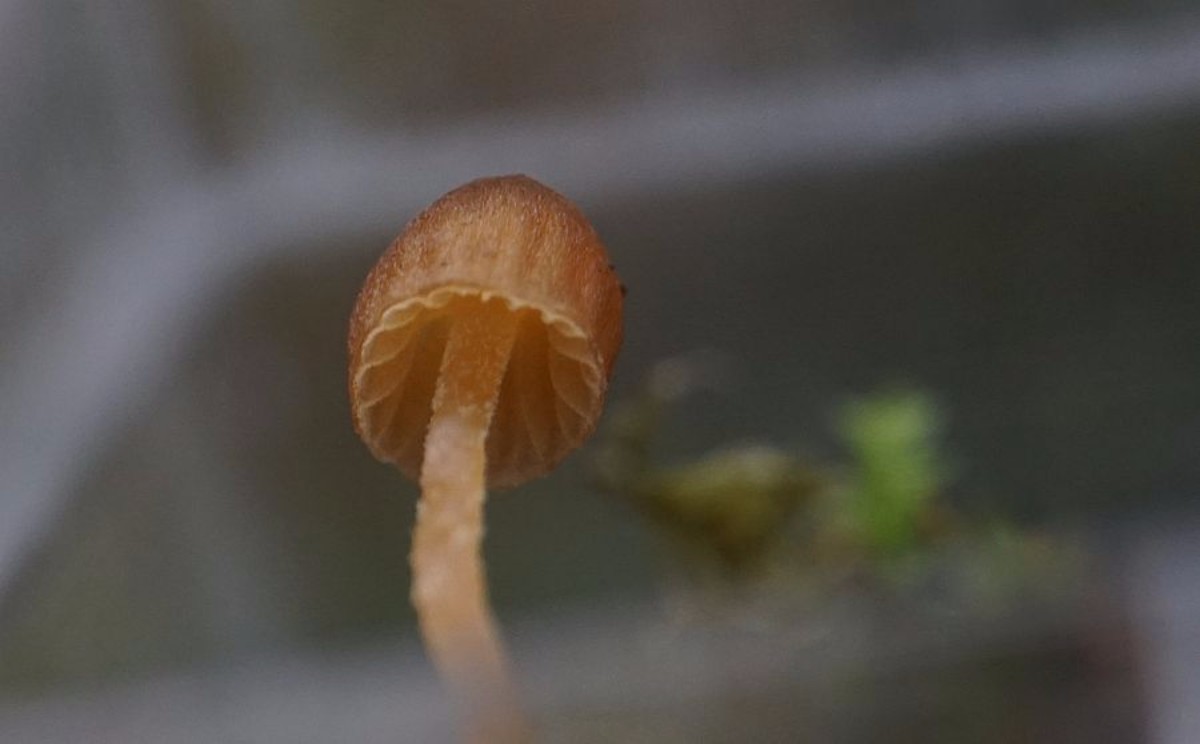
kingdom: Fungi
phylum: Basidiomycota
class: Agaricomycetes
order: Agaricales
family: Hymenogastraceae
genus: Galerina
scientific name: Galerina
